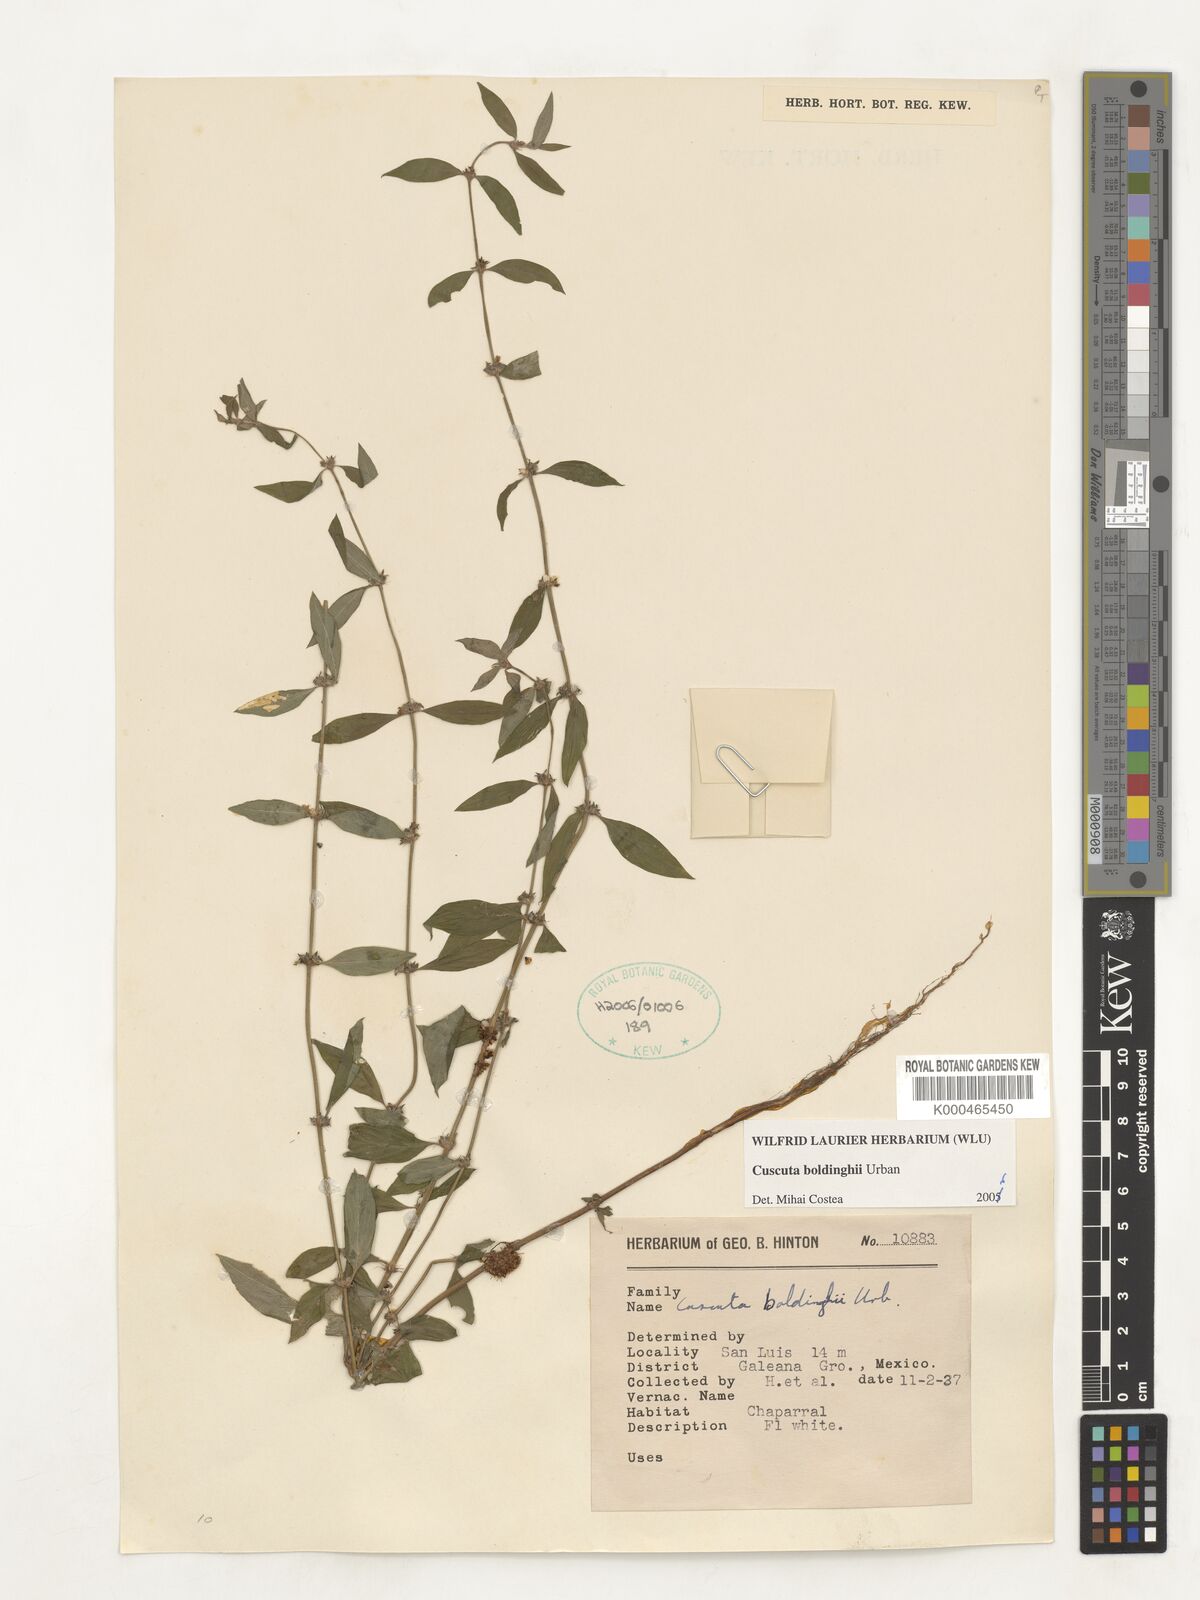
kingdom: Plantae
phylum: Tracheophyta
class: Magnoliopsida
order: Solanales
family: Convolvulaceae
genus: Cuscuta
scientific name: Cuscuta boldinghii
